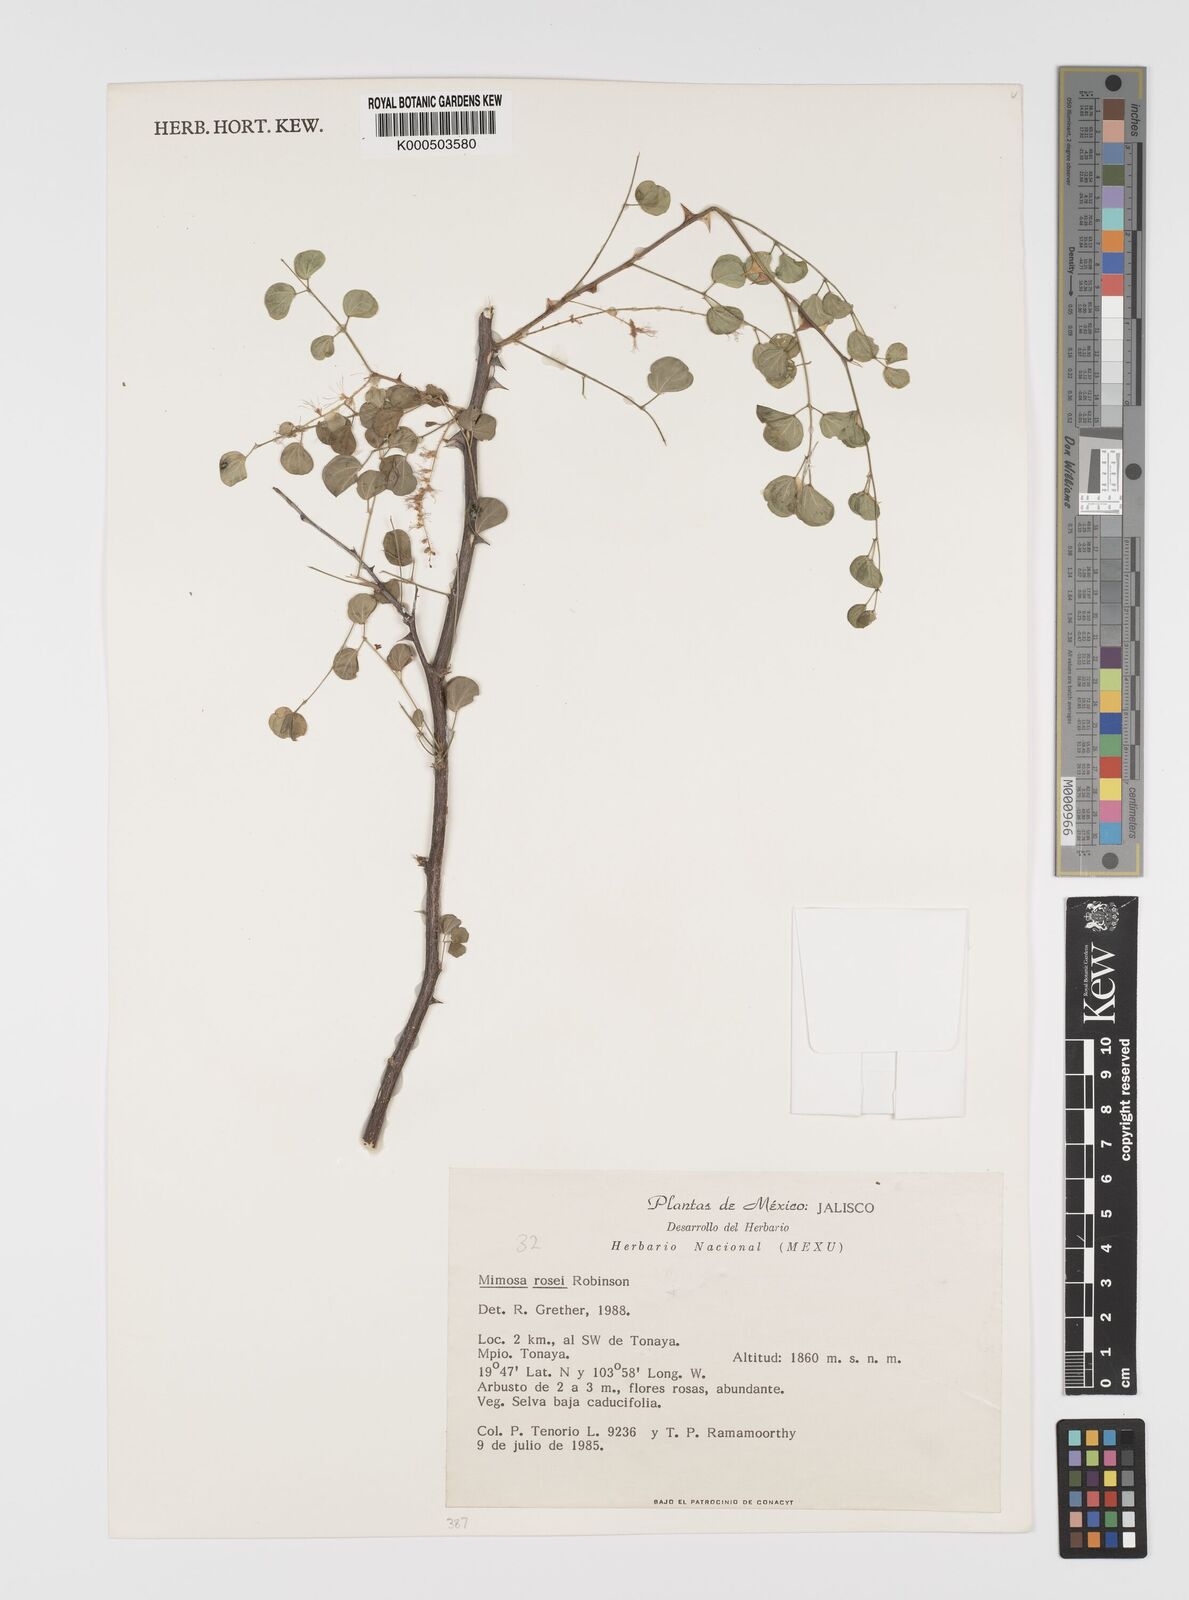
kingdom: Plantae
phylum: Tracheophyta
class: Magnoliopsida
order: Fabales
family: Fabaceae
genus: Mimosa
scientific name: Mimosa rosei
